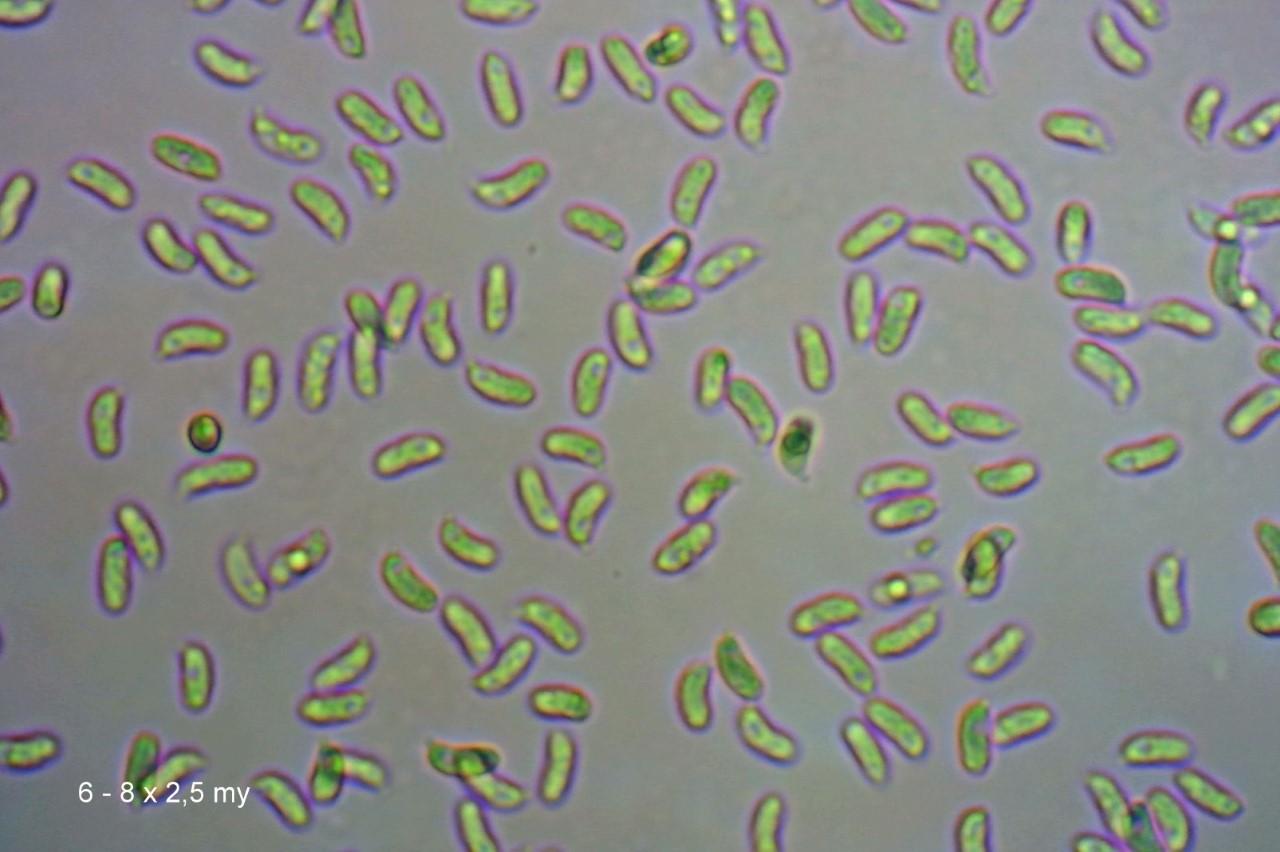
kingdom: Fungi
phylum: Basidiomycota
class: Agaricomycetes
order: Agaricales
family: Clavariaceae
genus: Clavaria
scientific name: Clavaria amoenoides
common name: bleggul køllesvamp
